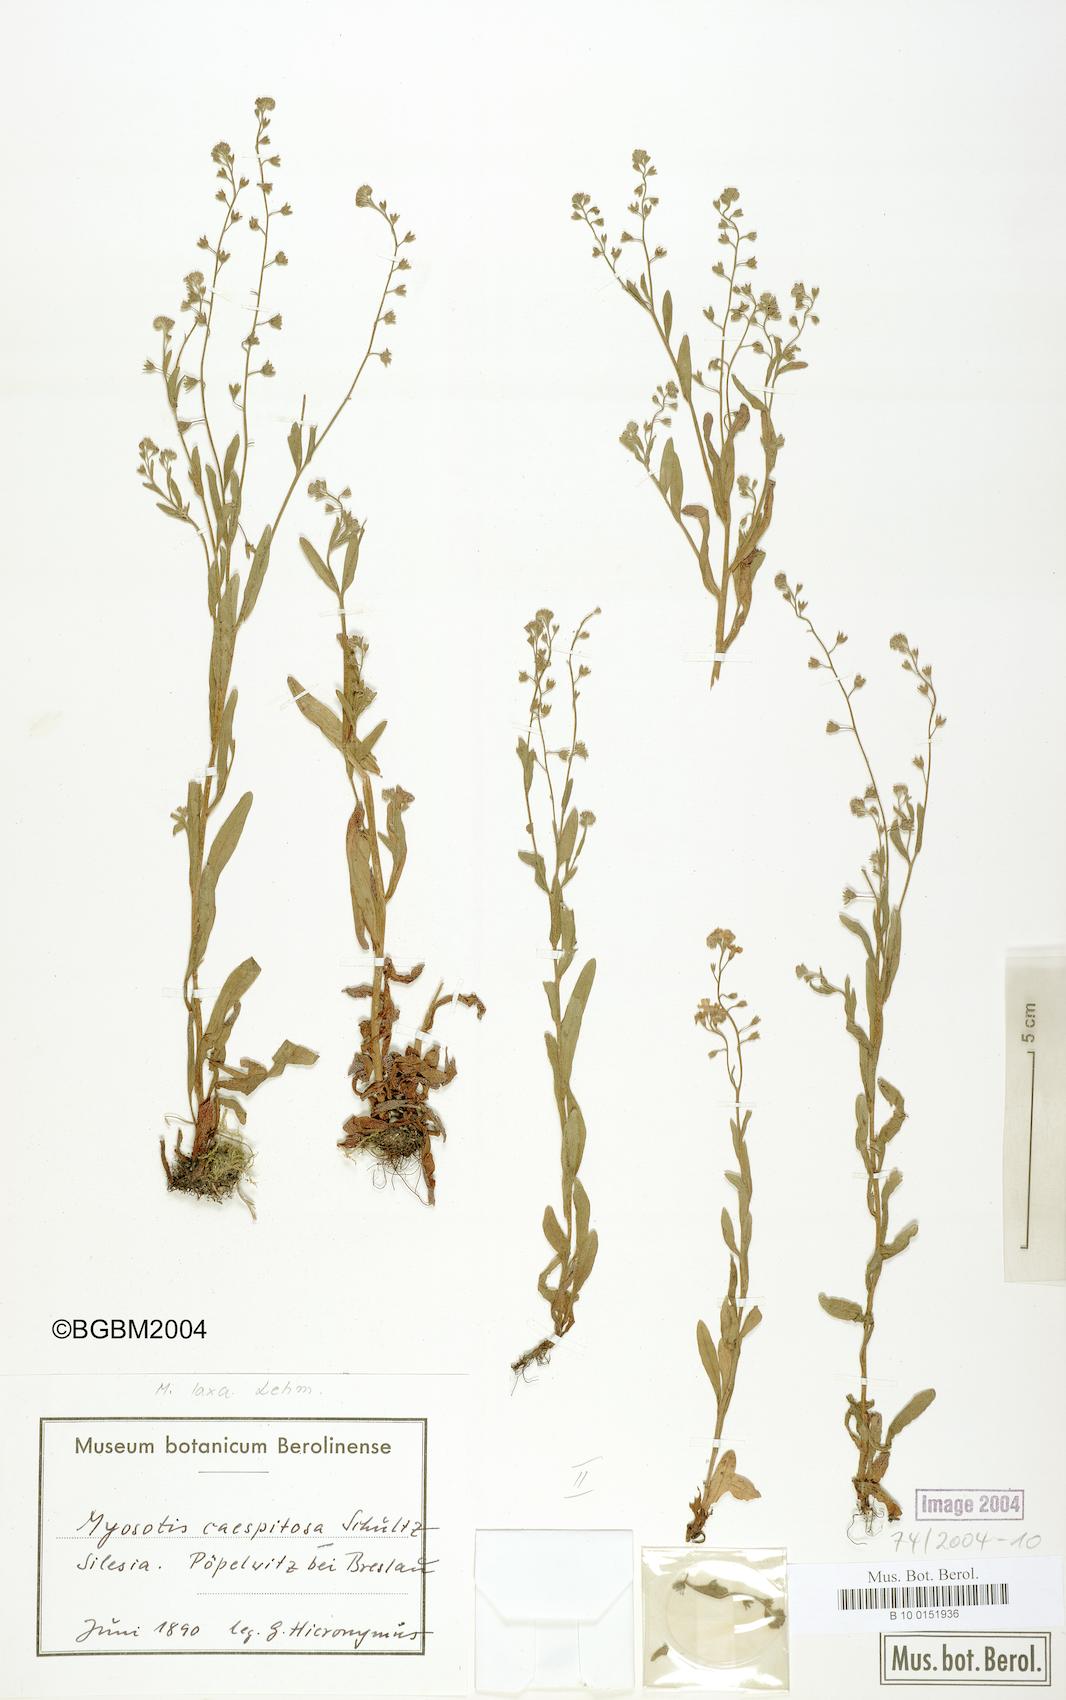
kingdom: Plantae
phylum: Tracheophyta
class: Magnoliopsida
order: Boraginales
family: Boraginaceae
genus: Myosotis
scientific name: Myosotis laxa
